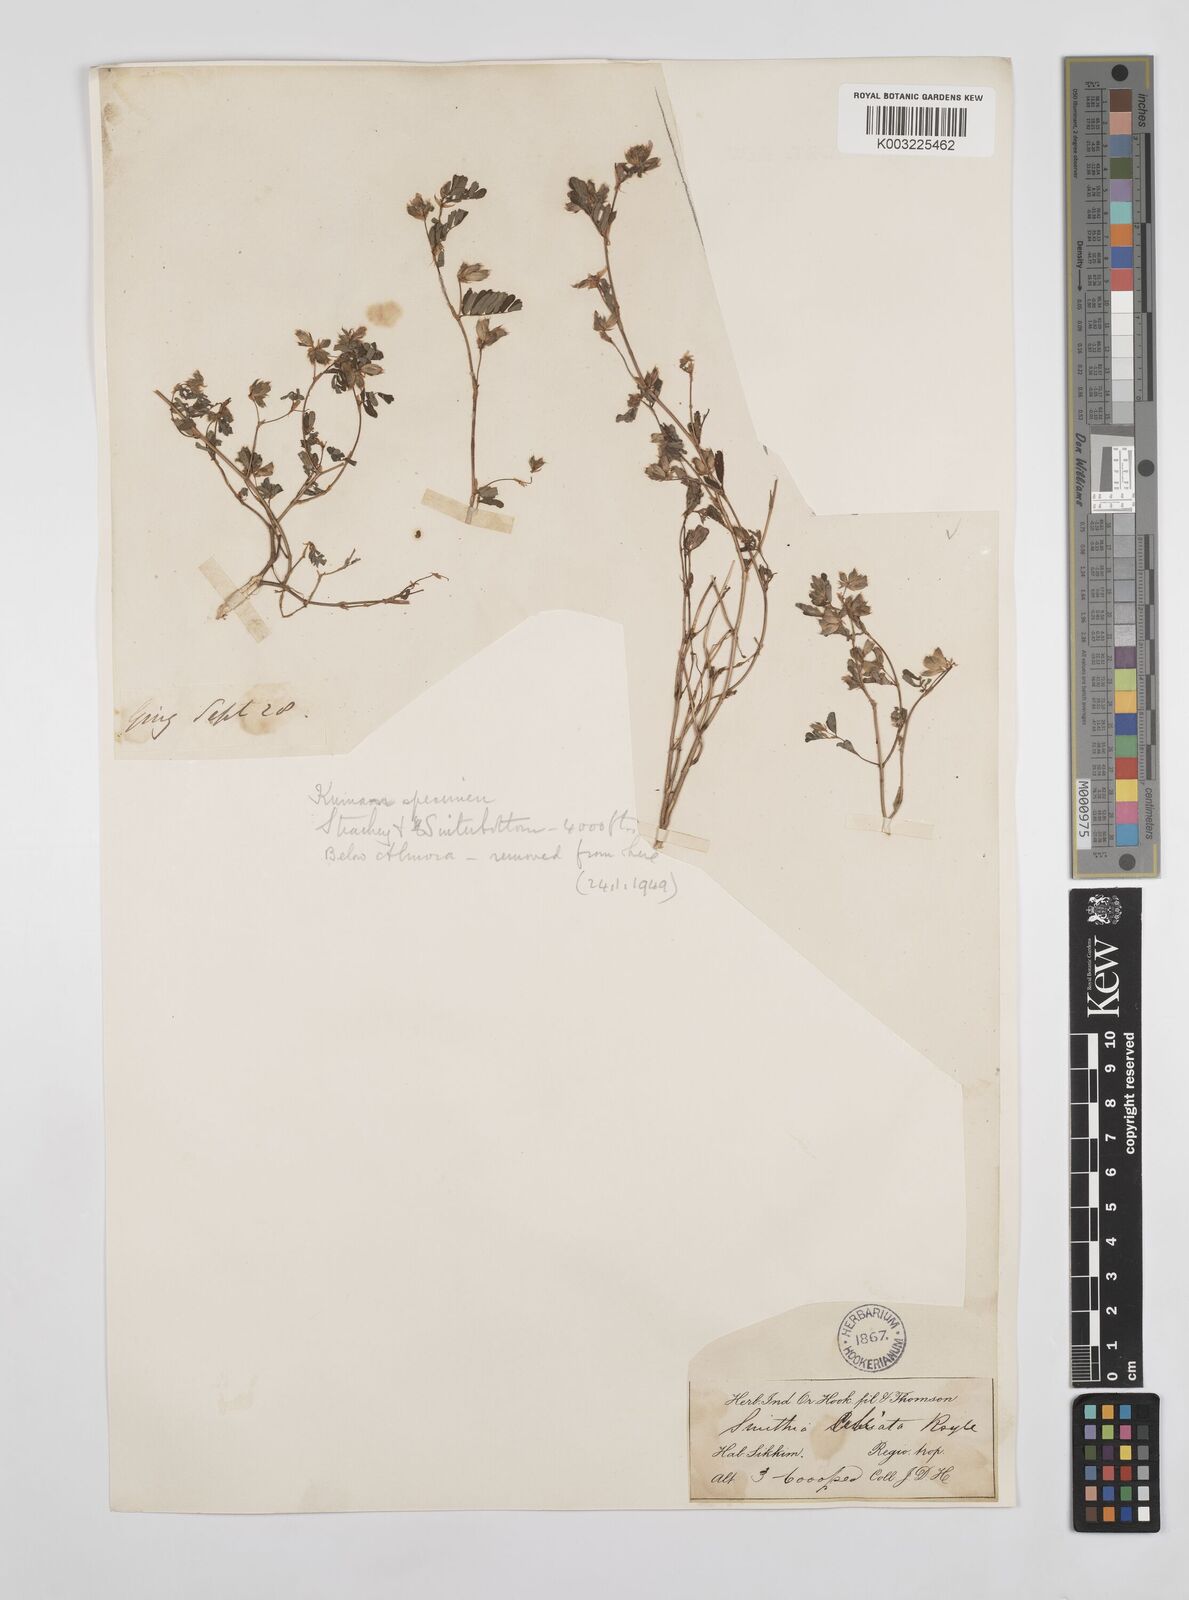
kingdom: Plantae
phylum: Tracheophyta
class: Magnoliopsida
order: Fabales
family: Fabaceae
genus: Smithia
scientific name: Smithia ciliata
